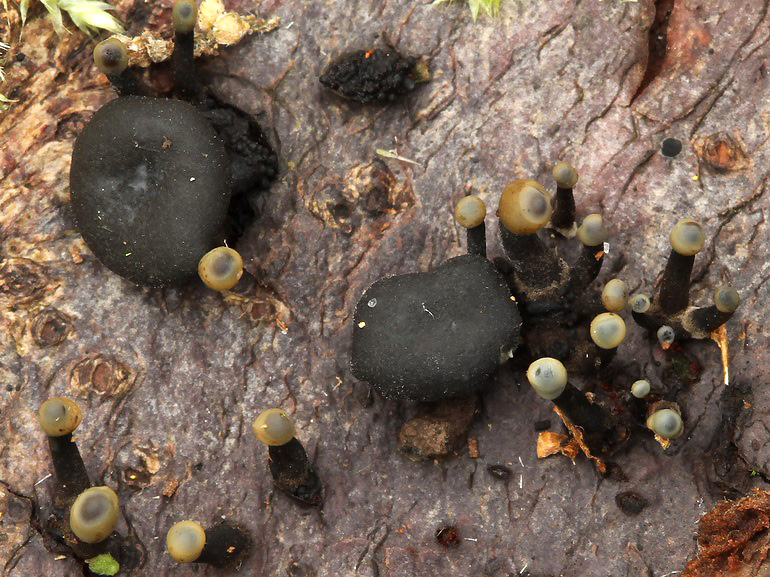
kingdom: Fungi
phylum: Ascomycota
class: Leotiomycetes
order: Helotiales
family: Bulgariaceae
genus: Holwaya
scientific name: Holwaya mucida
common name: lindeskive
